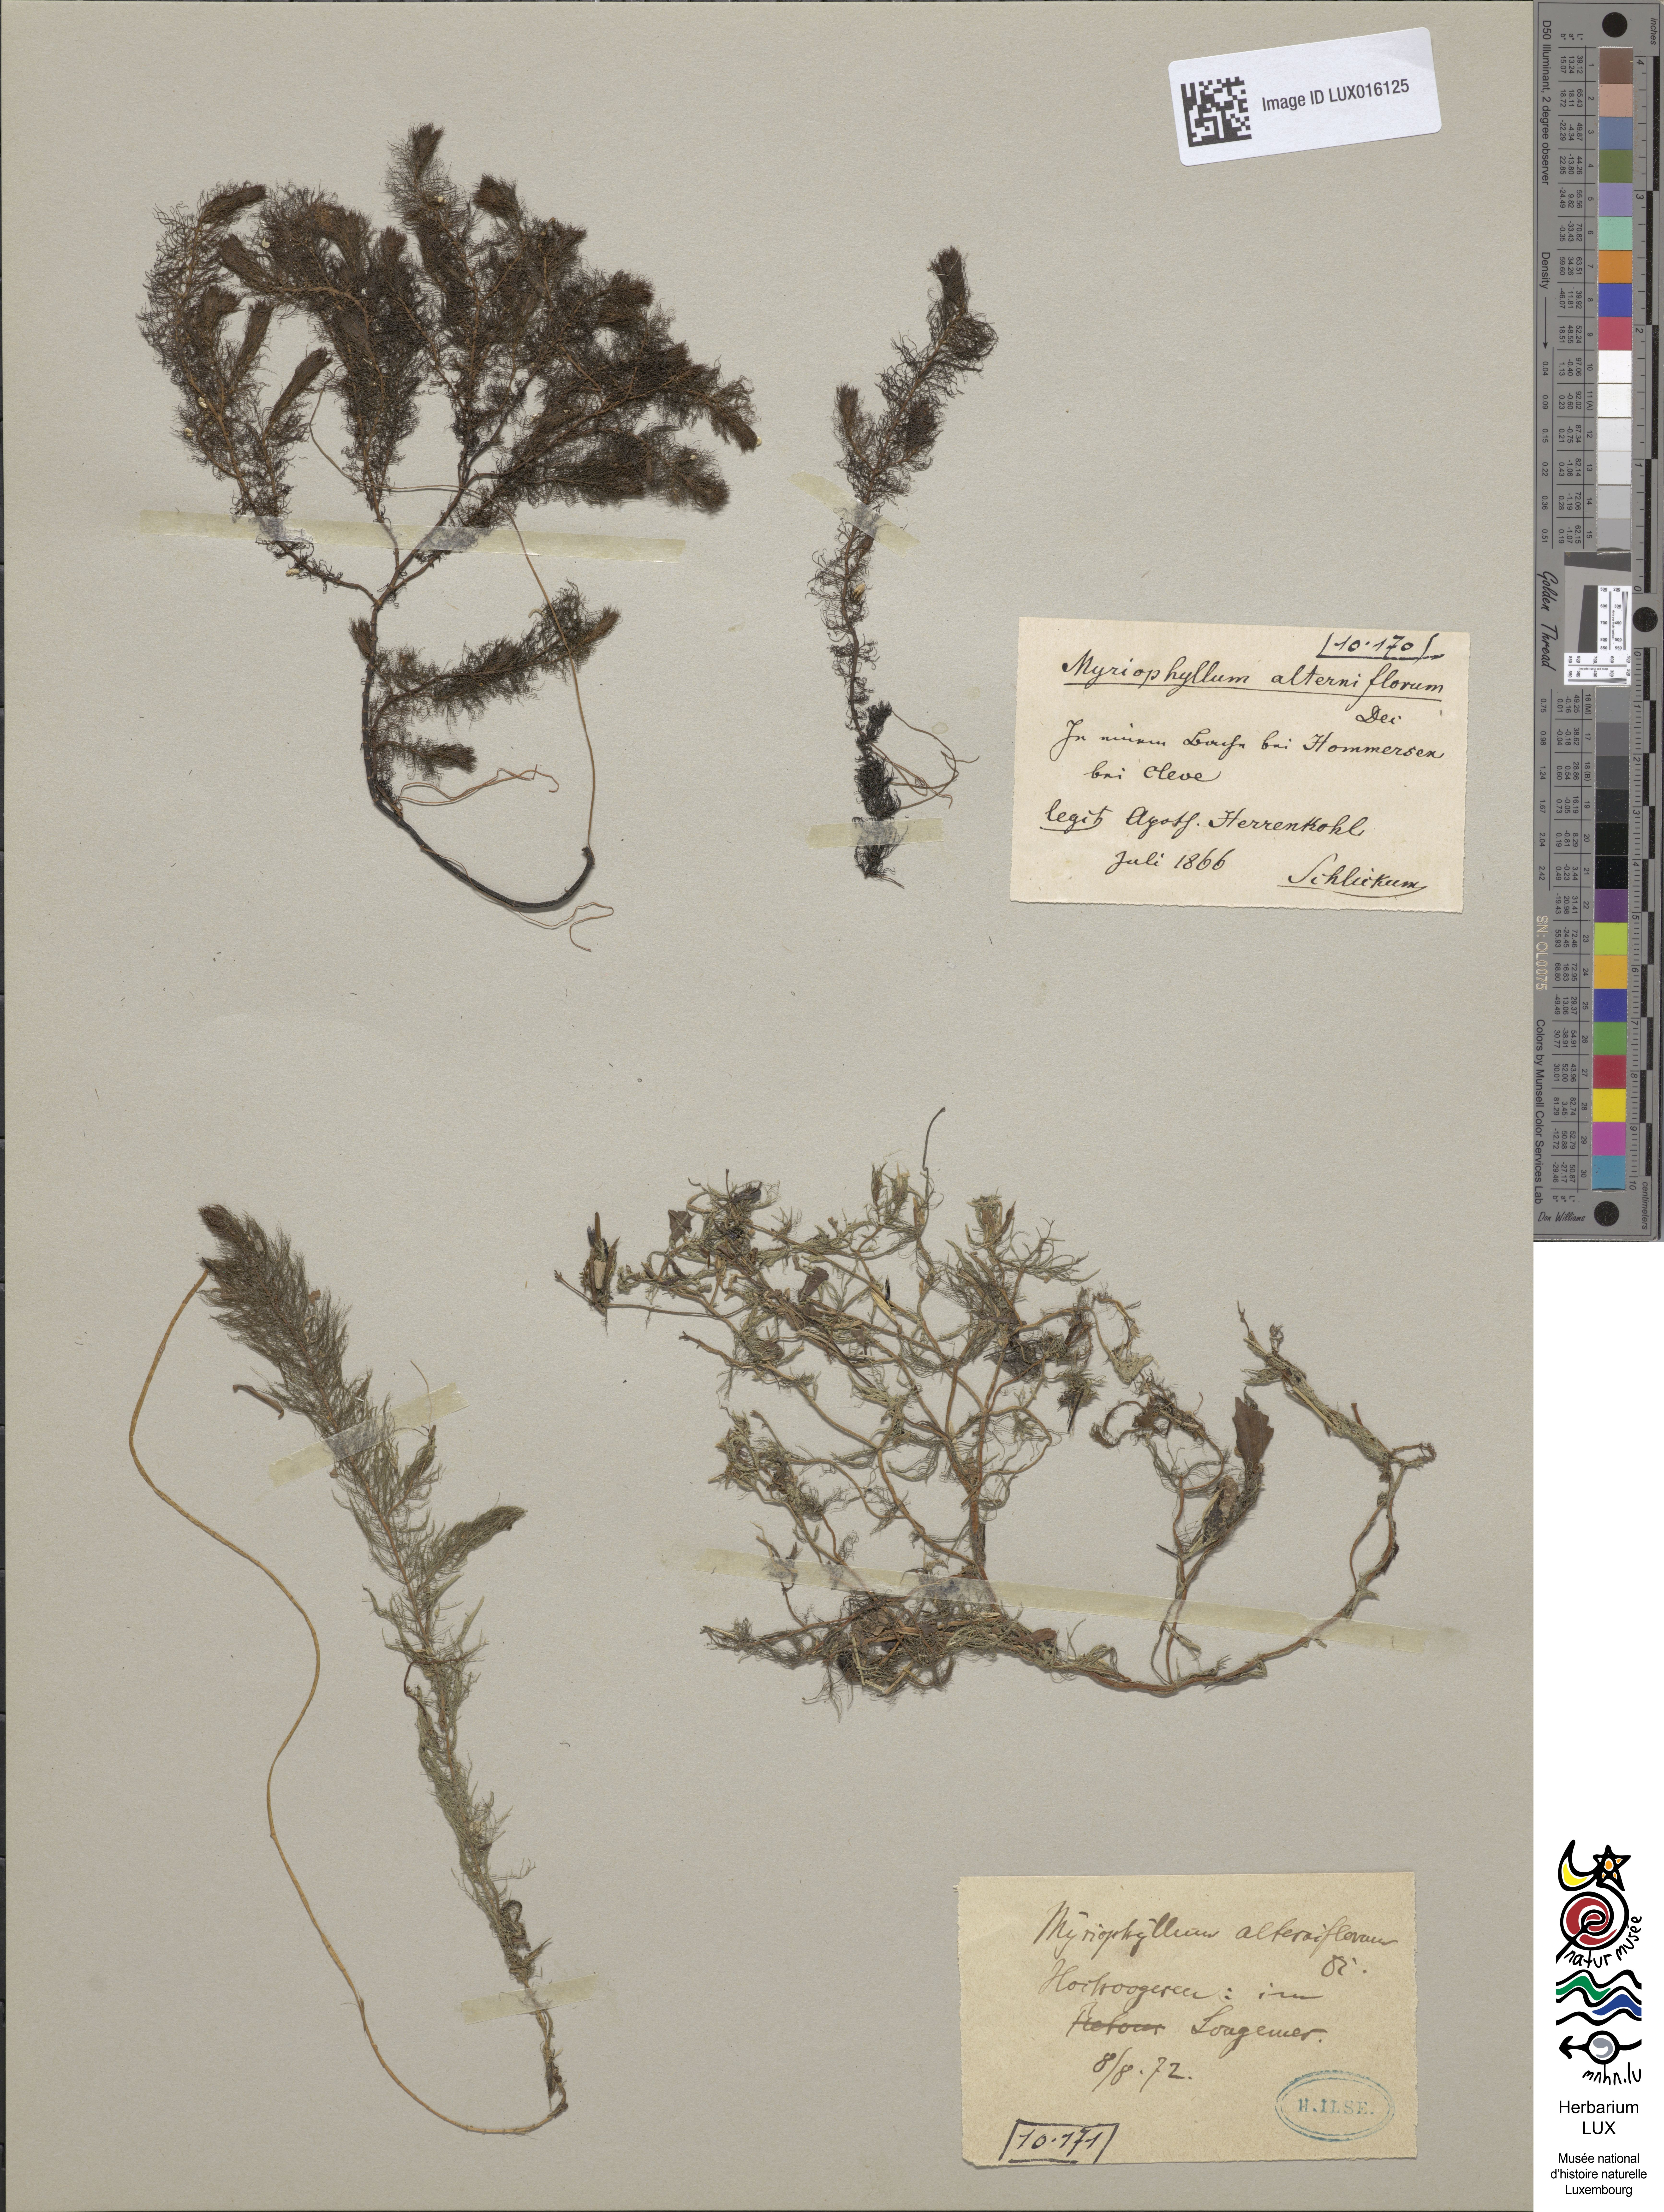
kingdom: Plantae
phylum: Tracheophyta
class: Magnoliopsida
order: Saxifragales
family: Haloragaceae
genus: Myriophyllum
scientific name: Myriophyllum alterniflorum
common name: Alternate water-milfoil
